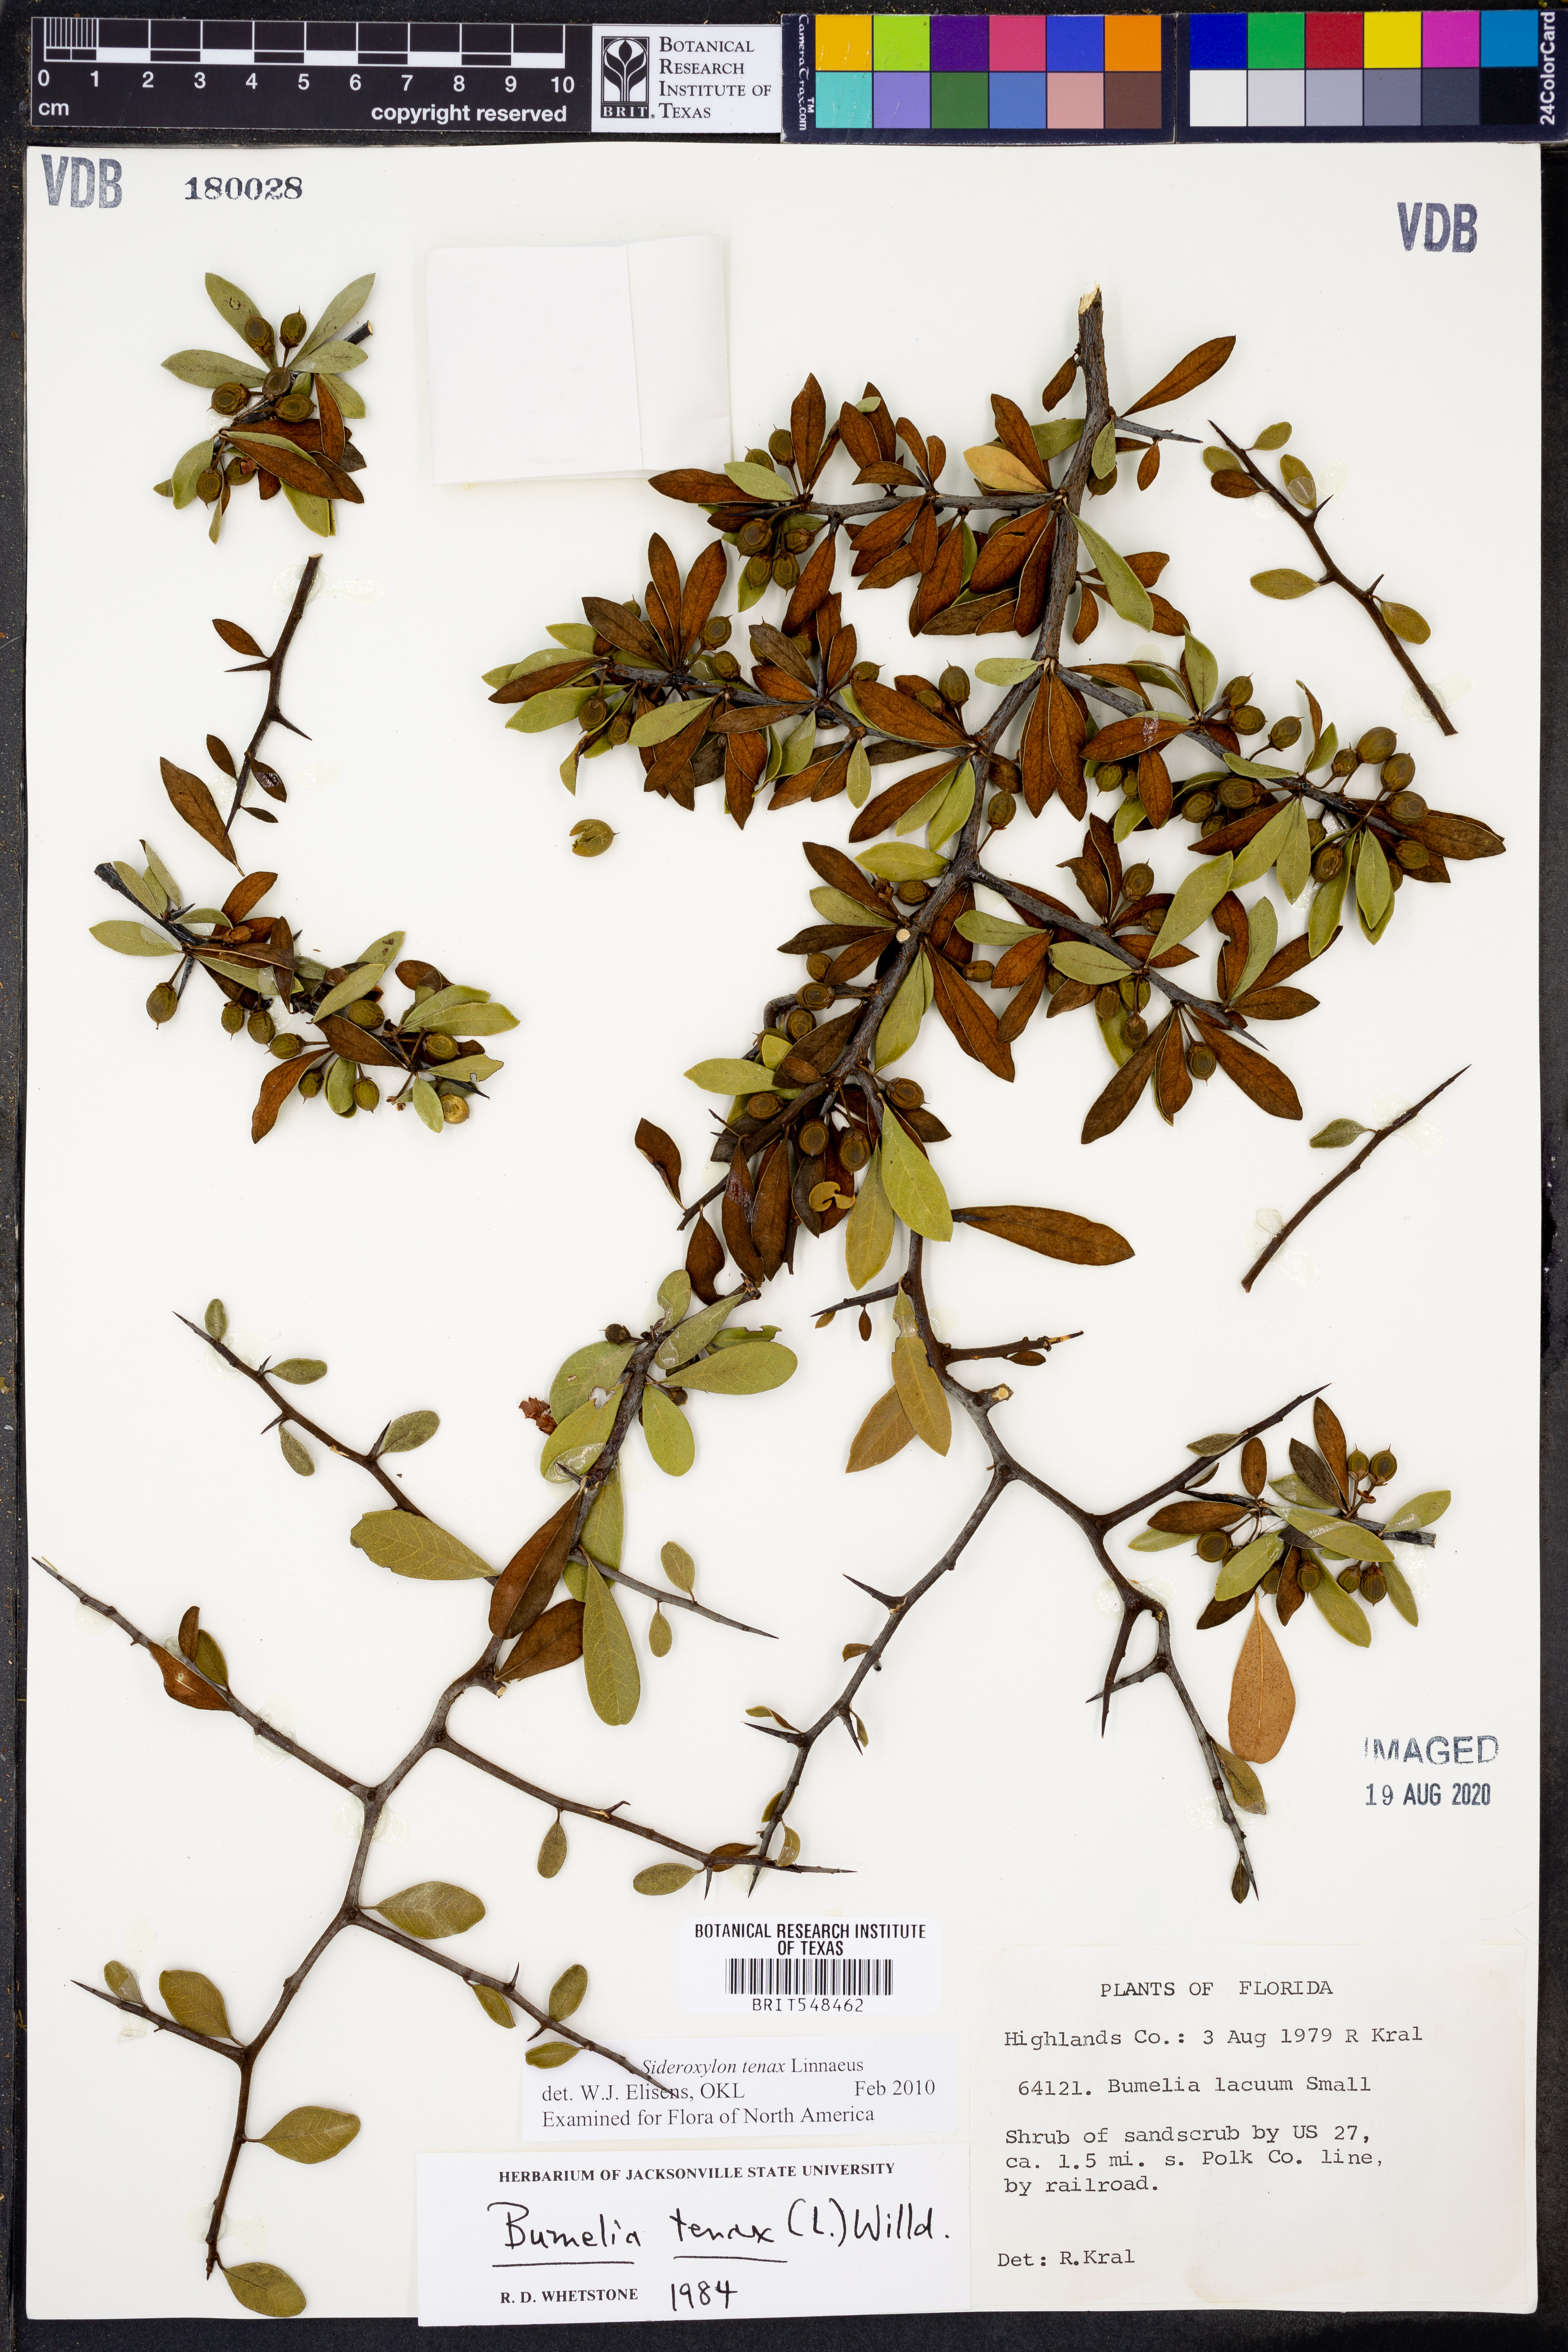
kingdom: Plantae
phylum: Tracheophyta
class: Magnoliopsida
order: Ericales
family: Sapotaceae
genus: Sideroxylon
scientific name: Sideroxylon tenax
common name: Tough-buckthorn
